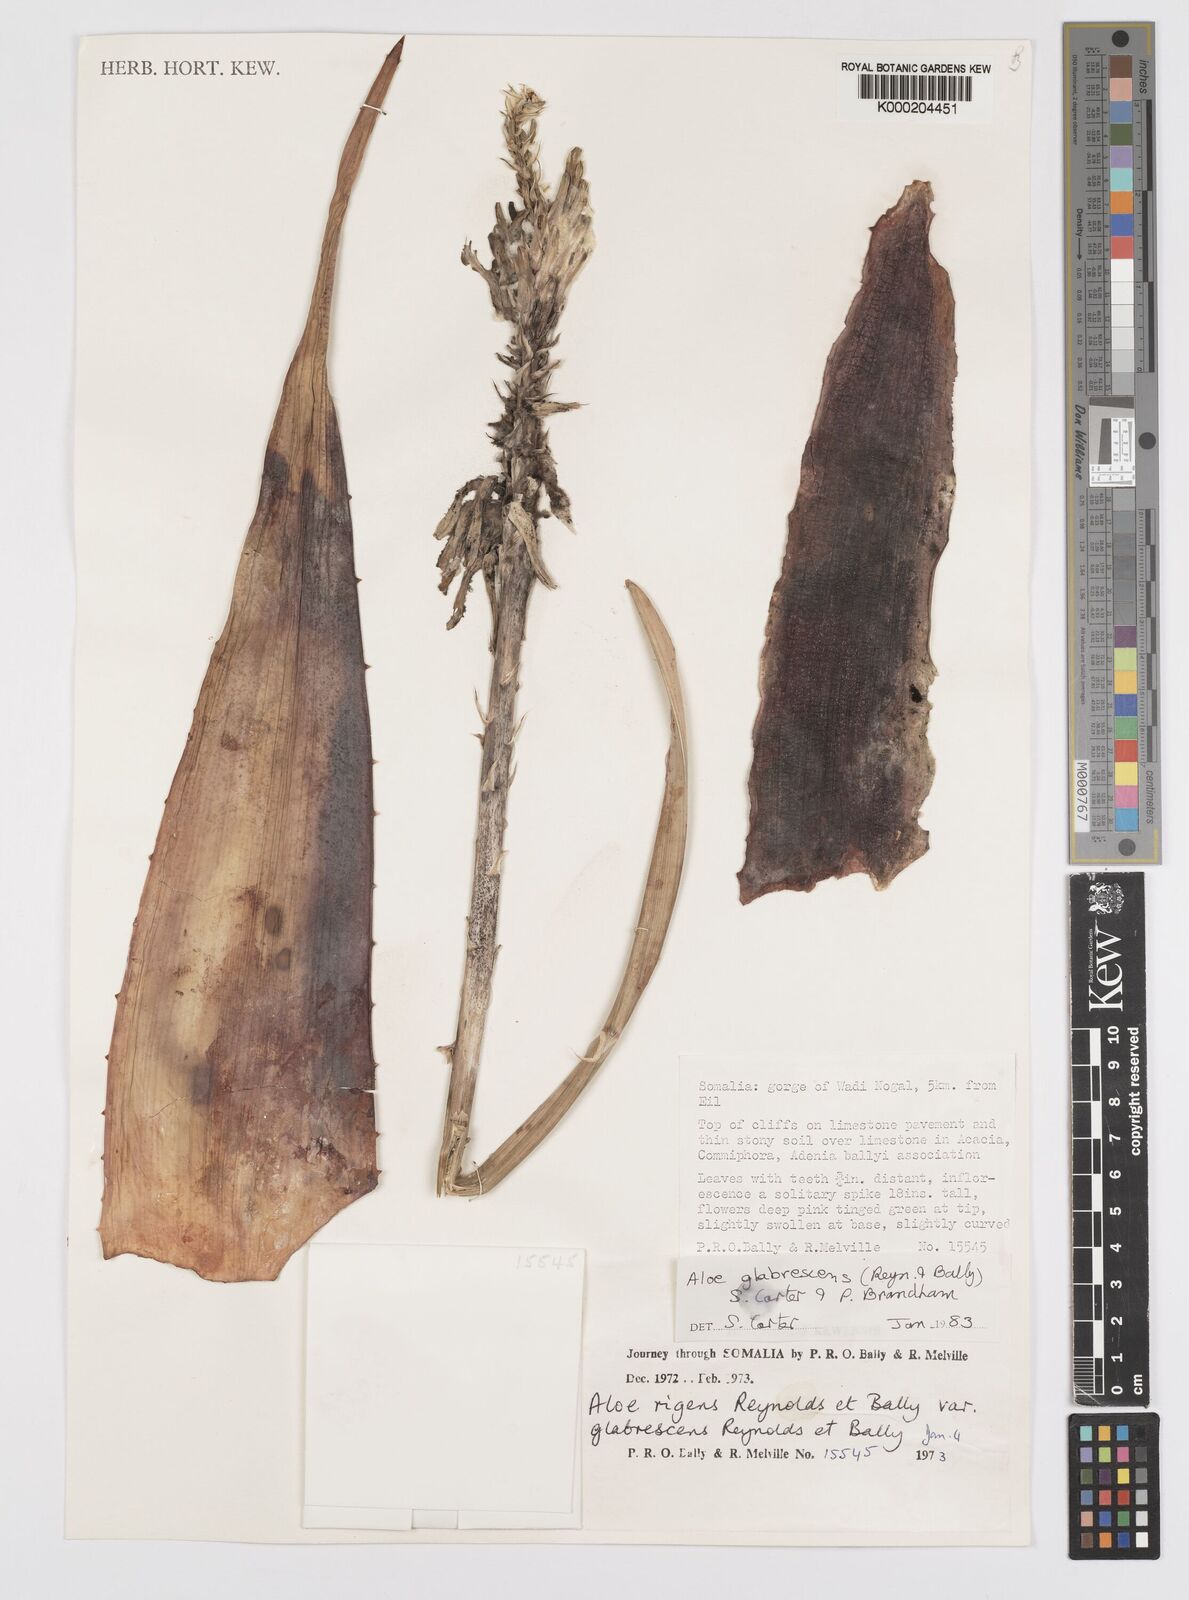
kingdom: Plantae
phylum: Tracheophyta
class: Liliopsida
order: Asparagales
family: Asphodelaceae
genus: Aloe
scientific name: Aloe glabrescens
